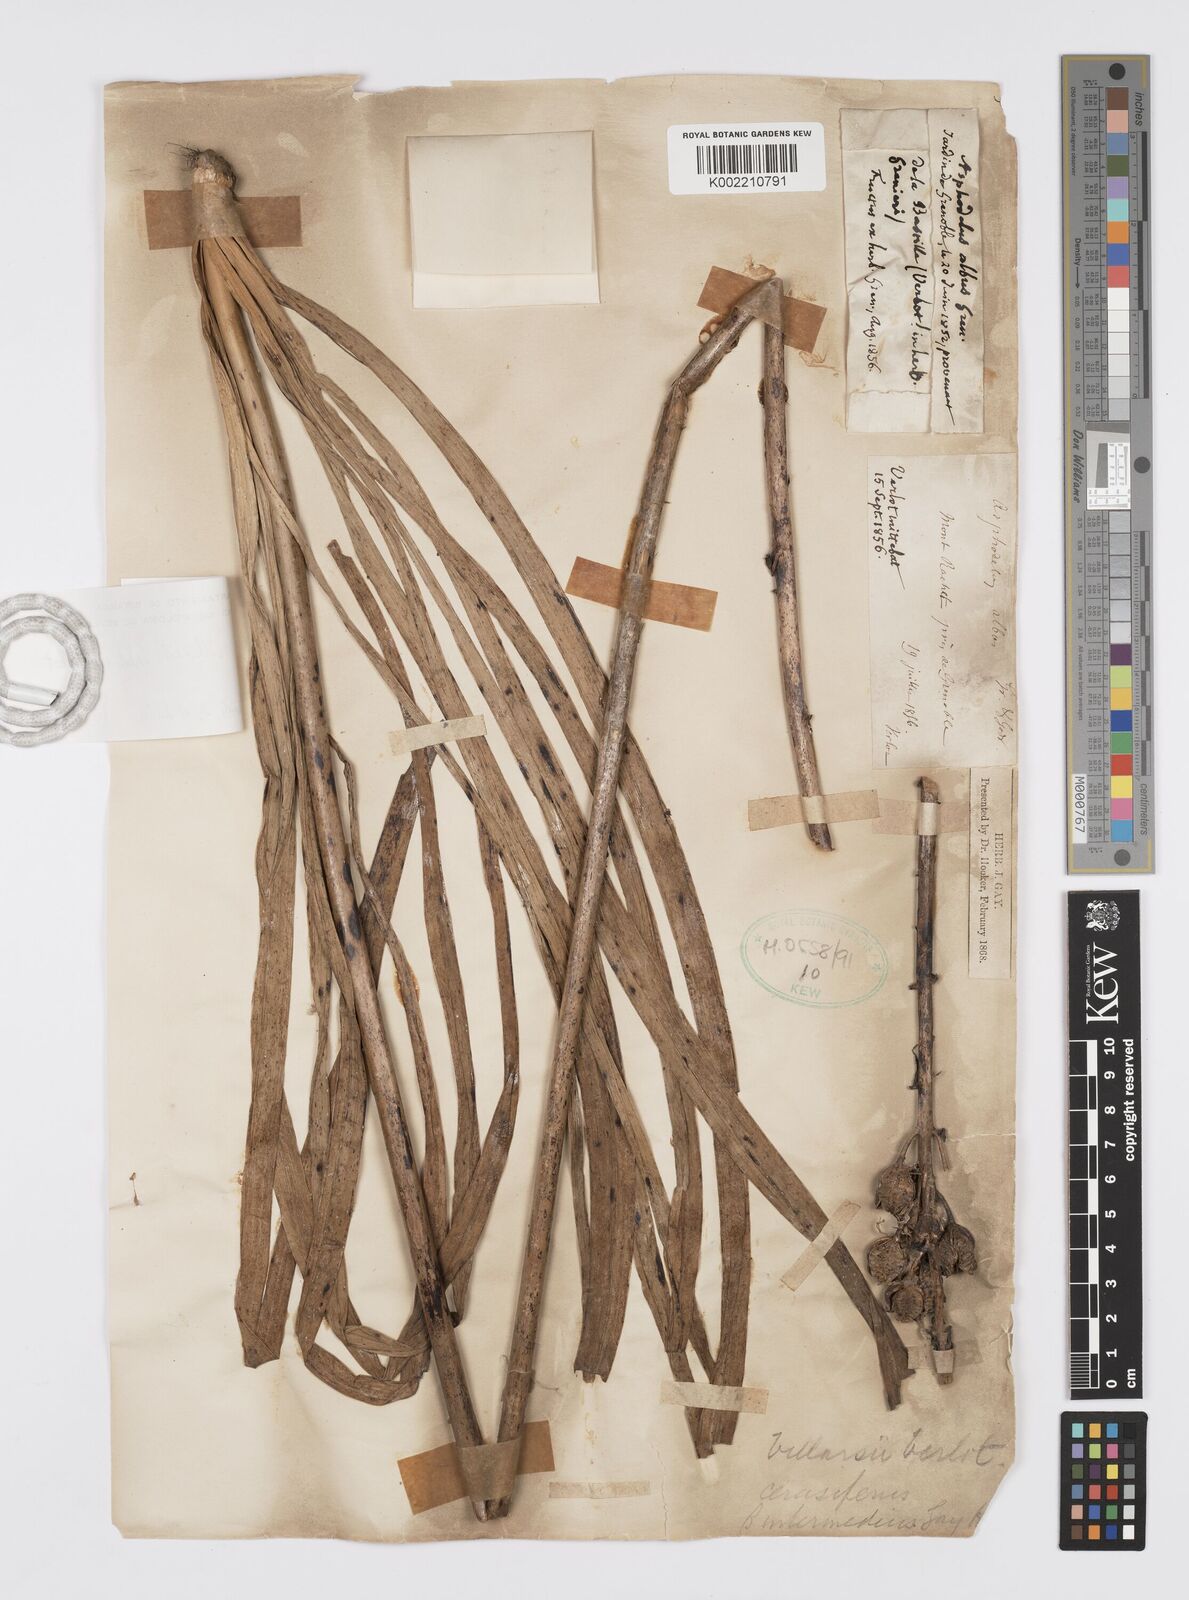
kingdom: Plantae
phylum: Tracheophyta
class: Liliopsida
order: Asparagales
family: Asphodelaceae
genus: Asphodelus
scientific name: Asphodelus cerasifer
